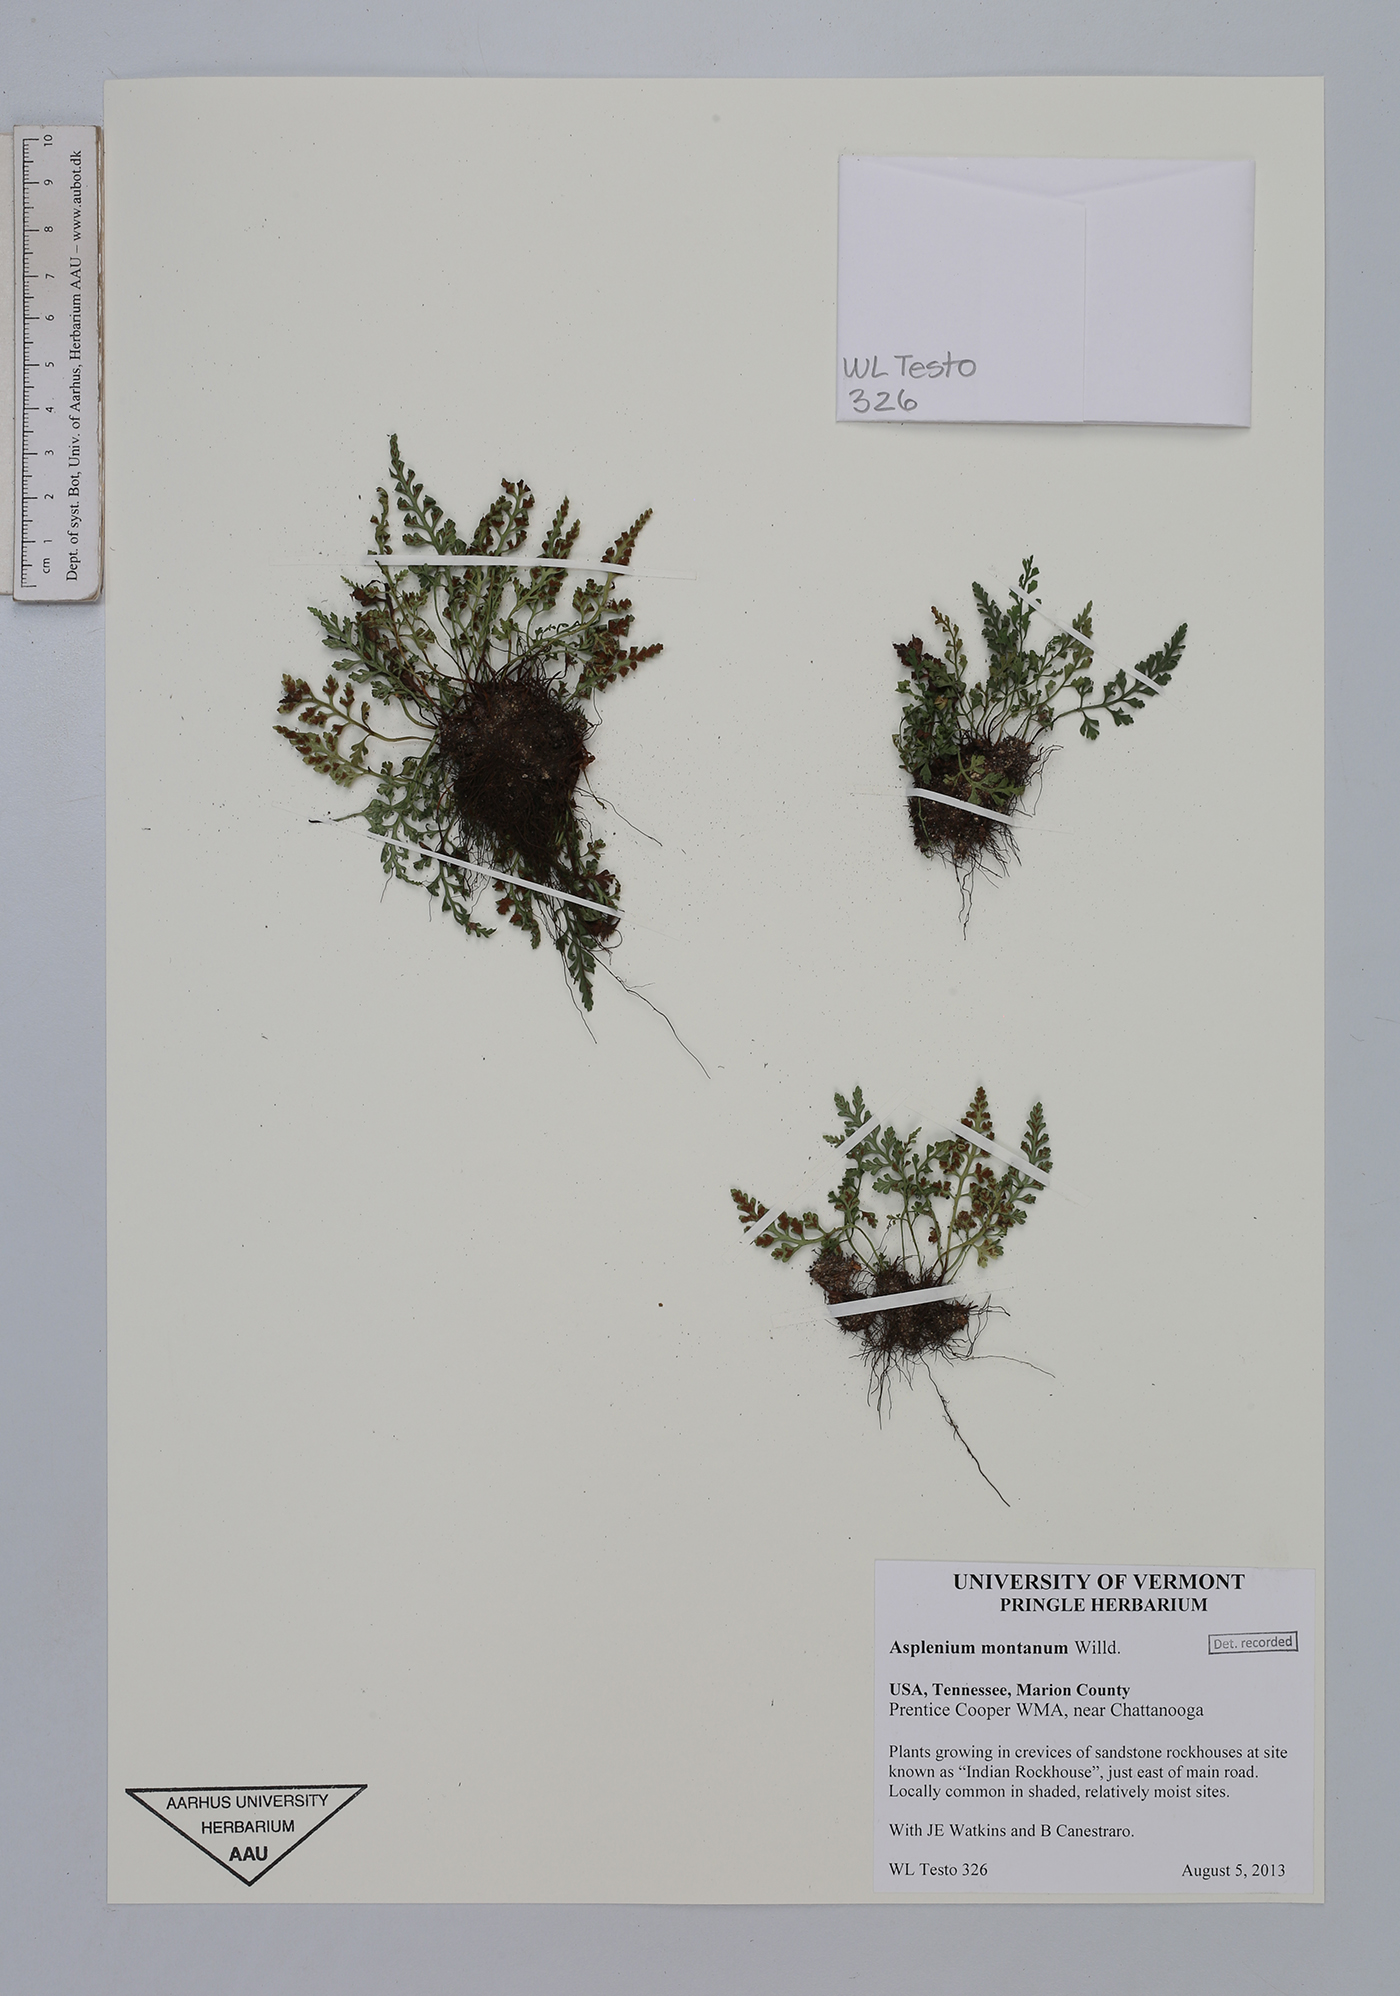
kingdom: Plantae
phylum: Tracheophyta
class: Polypodiopsida
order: Polypodiales
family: Aspleniaceae
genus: Asplenium
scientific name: Asplenium montanum
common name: Mountain spleenwort
